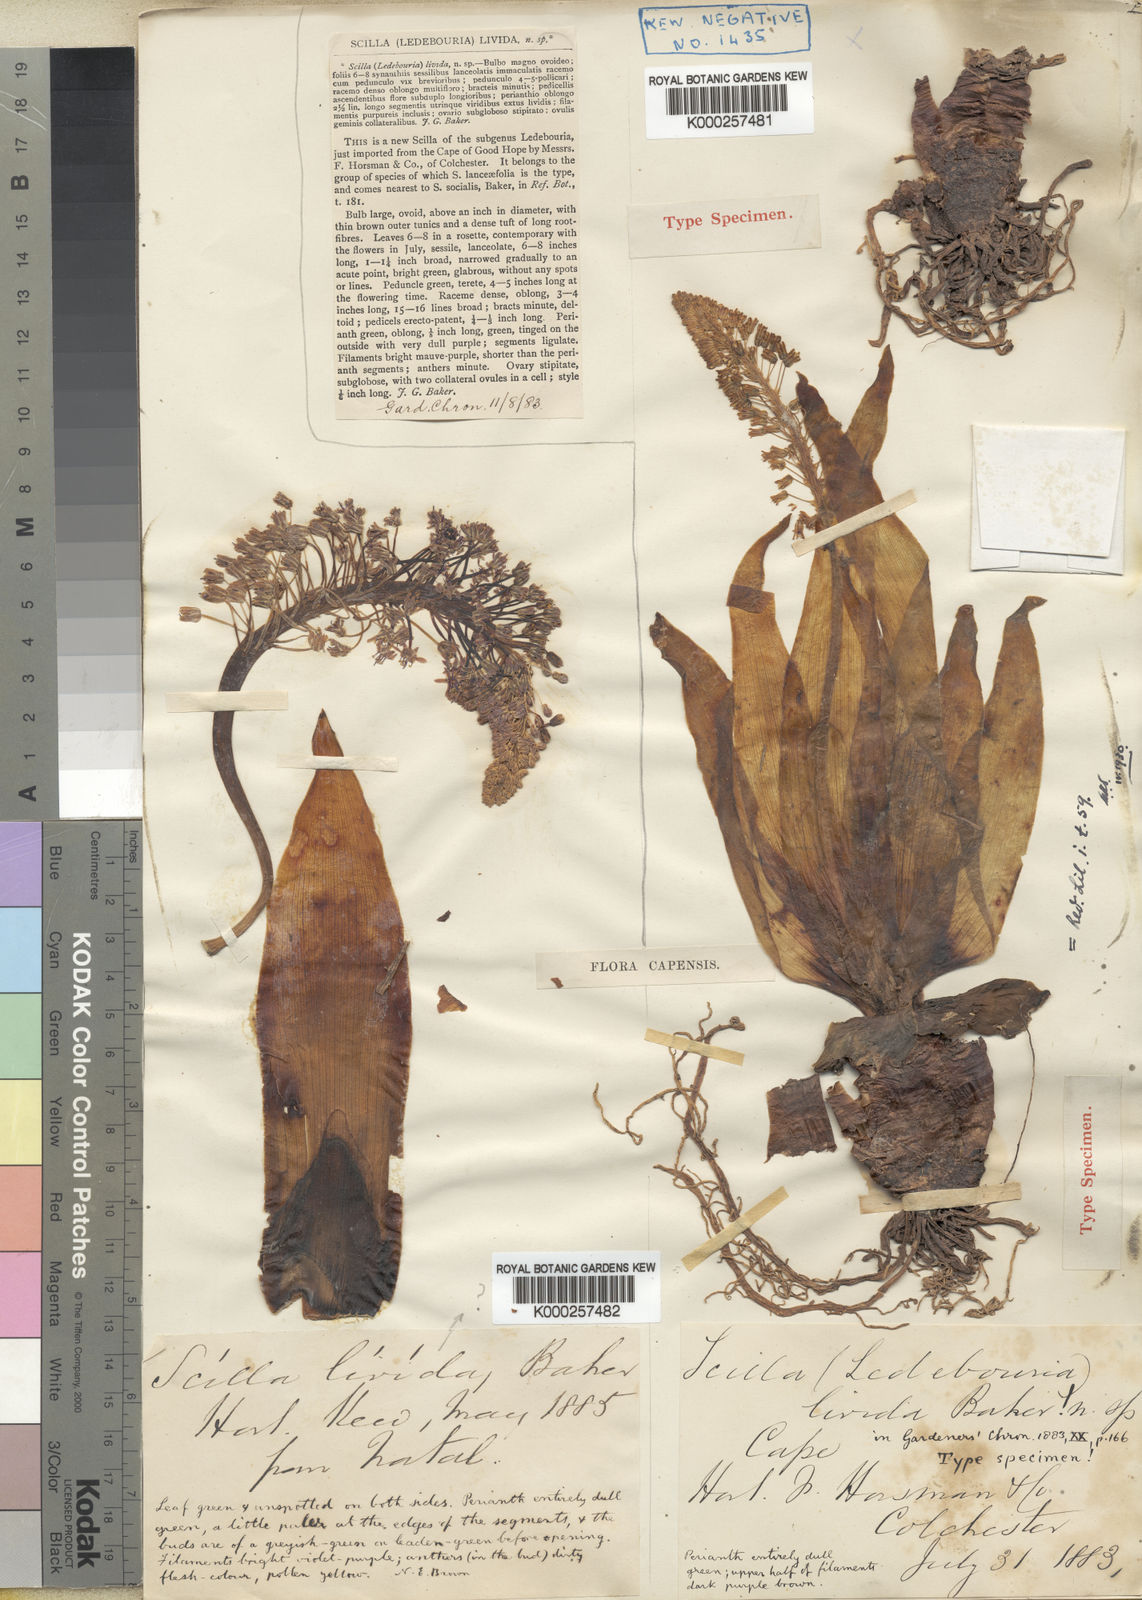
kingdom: Plantae
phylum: Tracheophyta
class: Liliopsida
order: Asparagales
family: Asparagaceae
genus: Ledebouria
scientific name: Ledebouria floribunda
